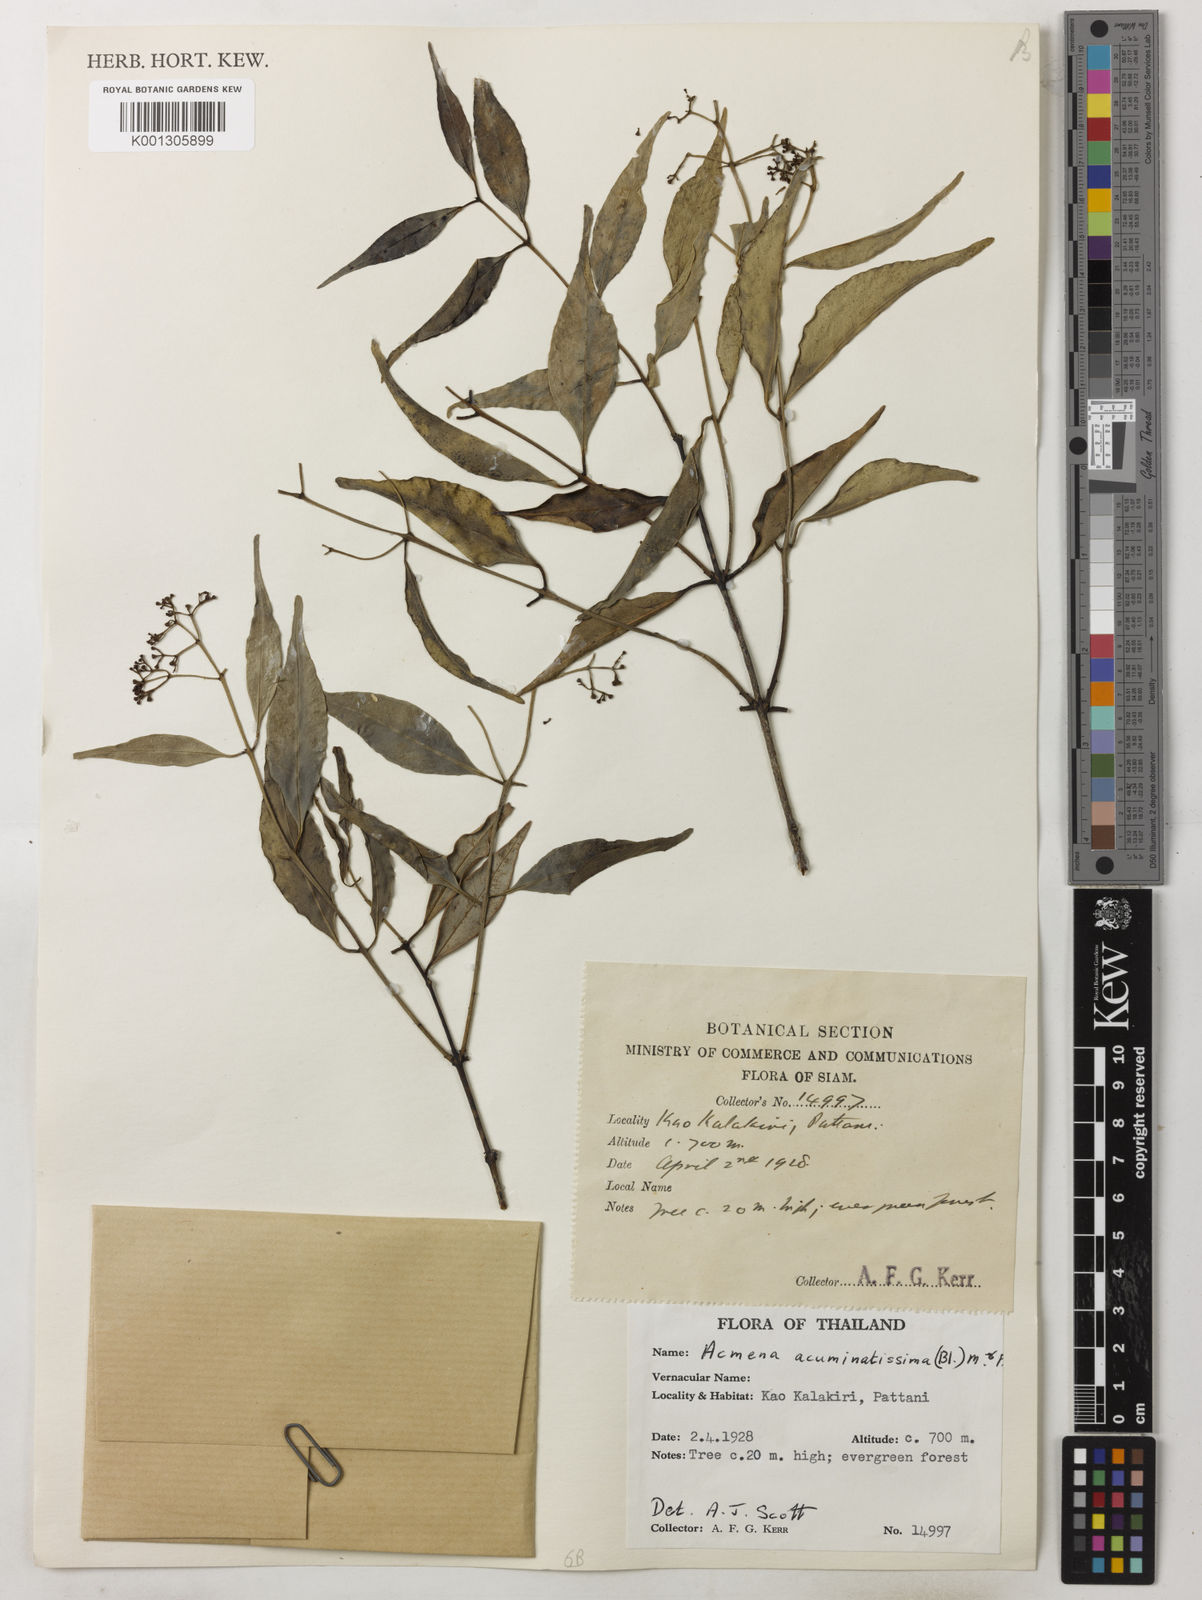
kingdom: Plantae
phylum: Tracheophyta
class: Magnoliopsida
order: Myrtales
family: Myrtaceae
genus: Syzygium
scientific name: Syzygium acuminatissimum
